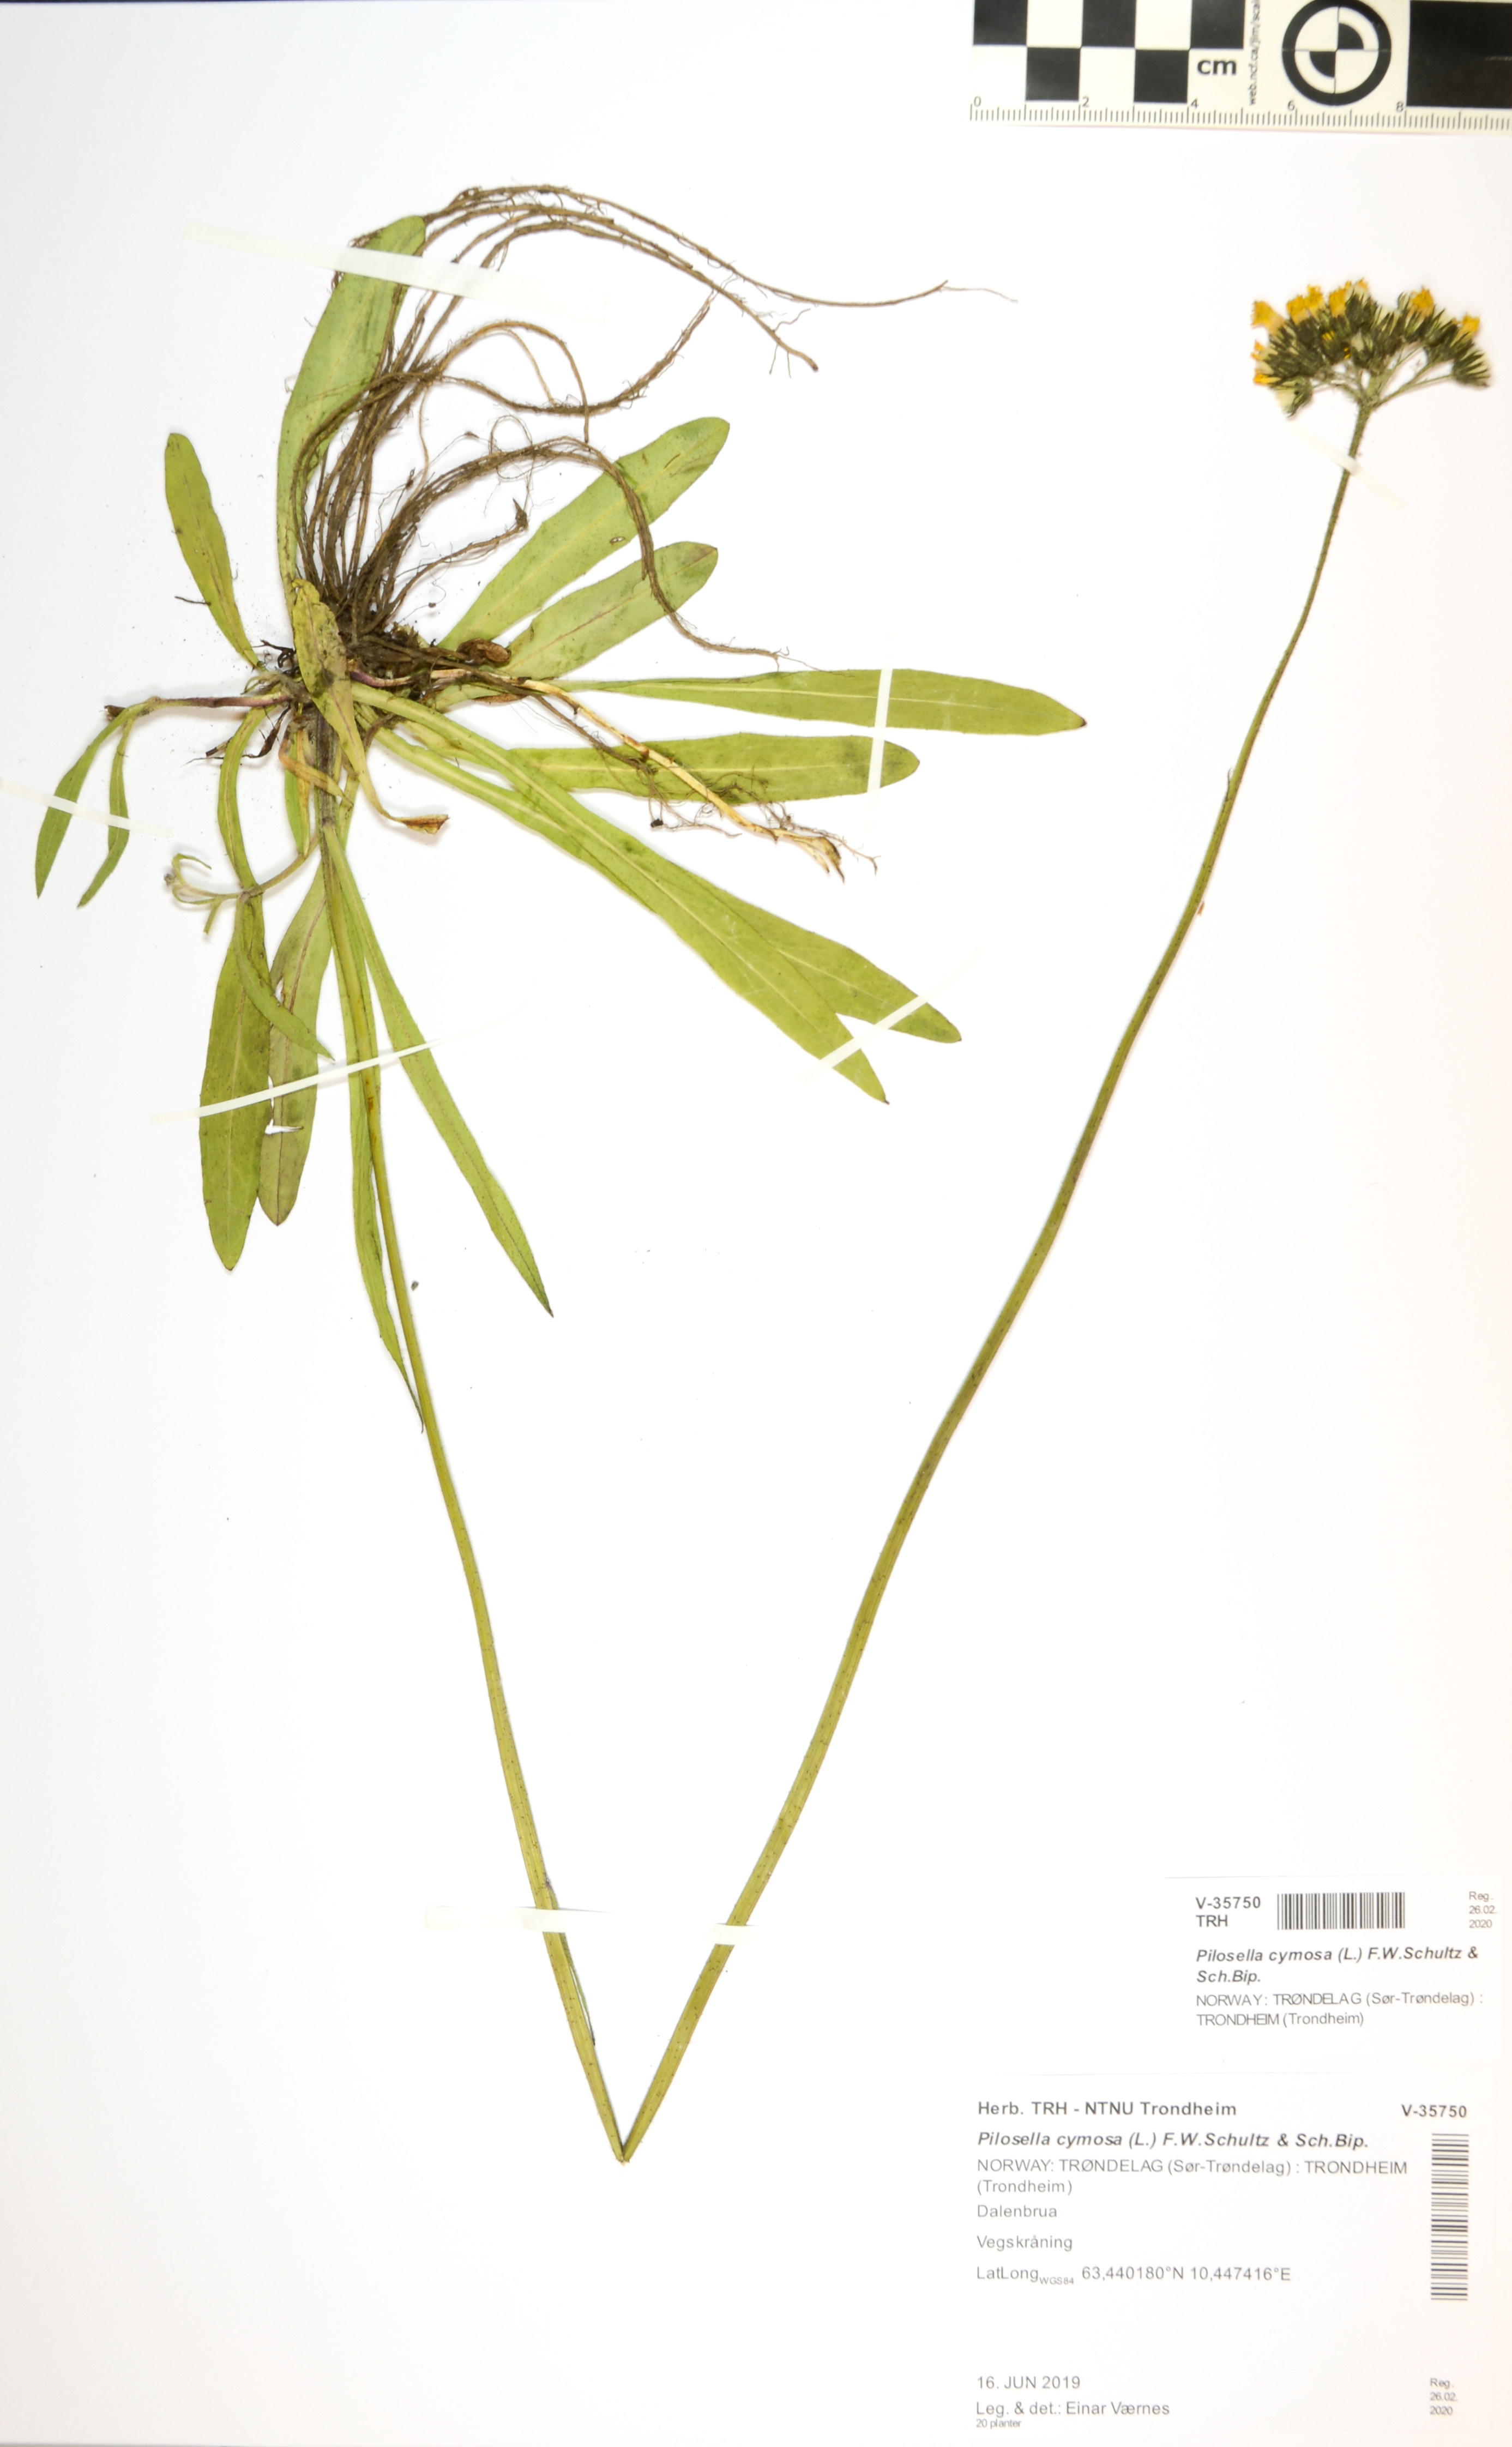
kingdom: Plantae
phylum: Tracheophyta
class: Magnoliopsida
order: Asterales
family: Asteraceae
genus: Pilosella
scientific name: Pilosella cymosa
